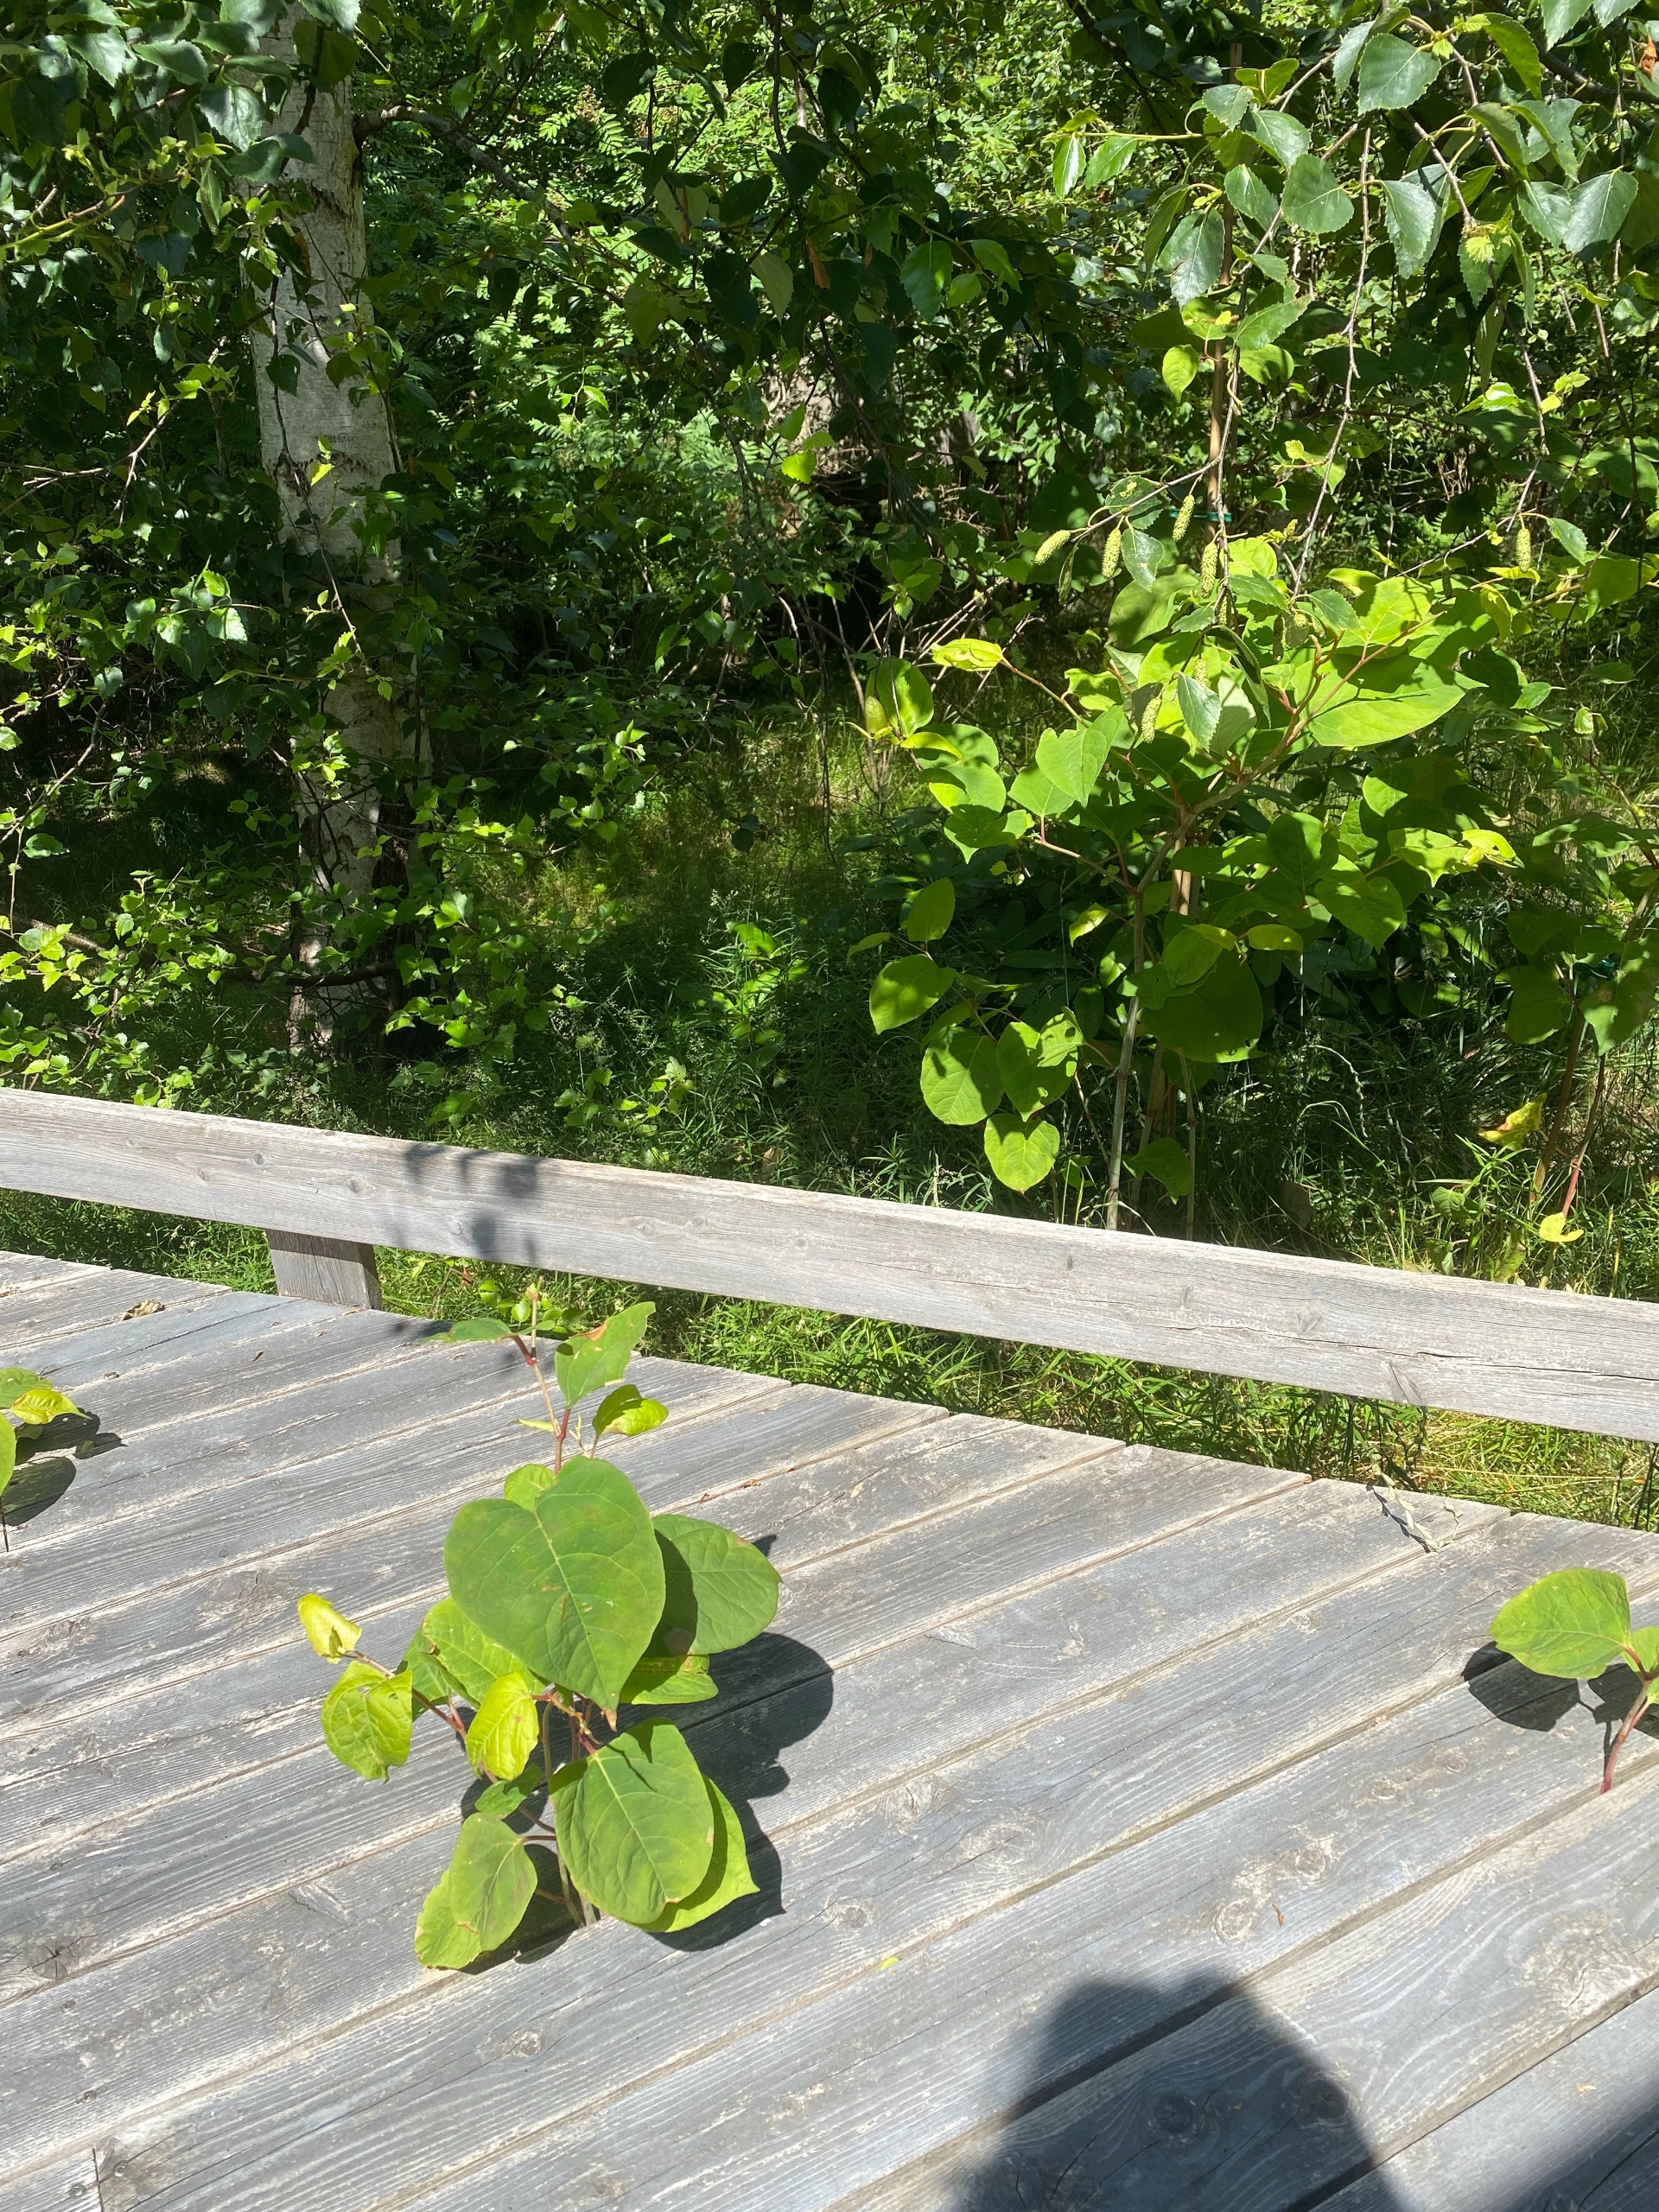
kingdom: Plantae
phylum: Tracheophyta
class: Magnoliopsida
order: Caryophyllales
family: Polygonaceae
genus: Reynoutria
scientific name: Reynoutria japonica
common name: Japan-pileurt
